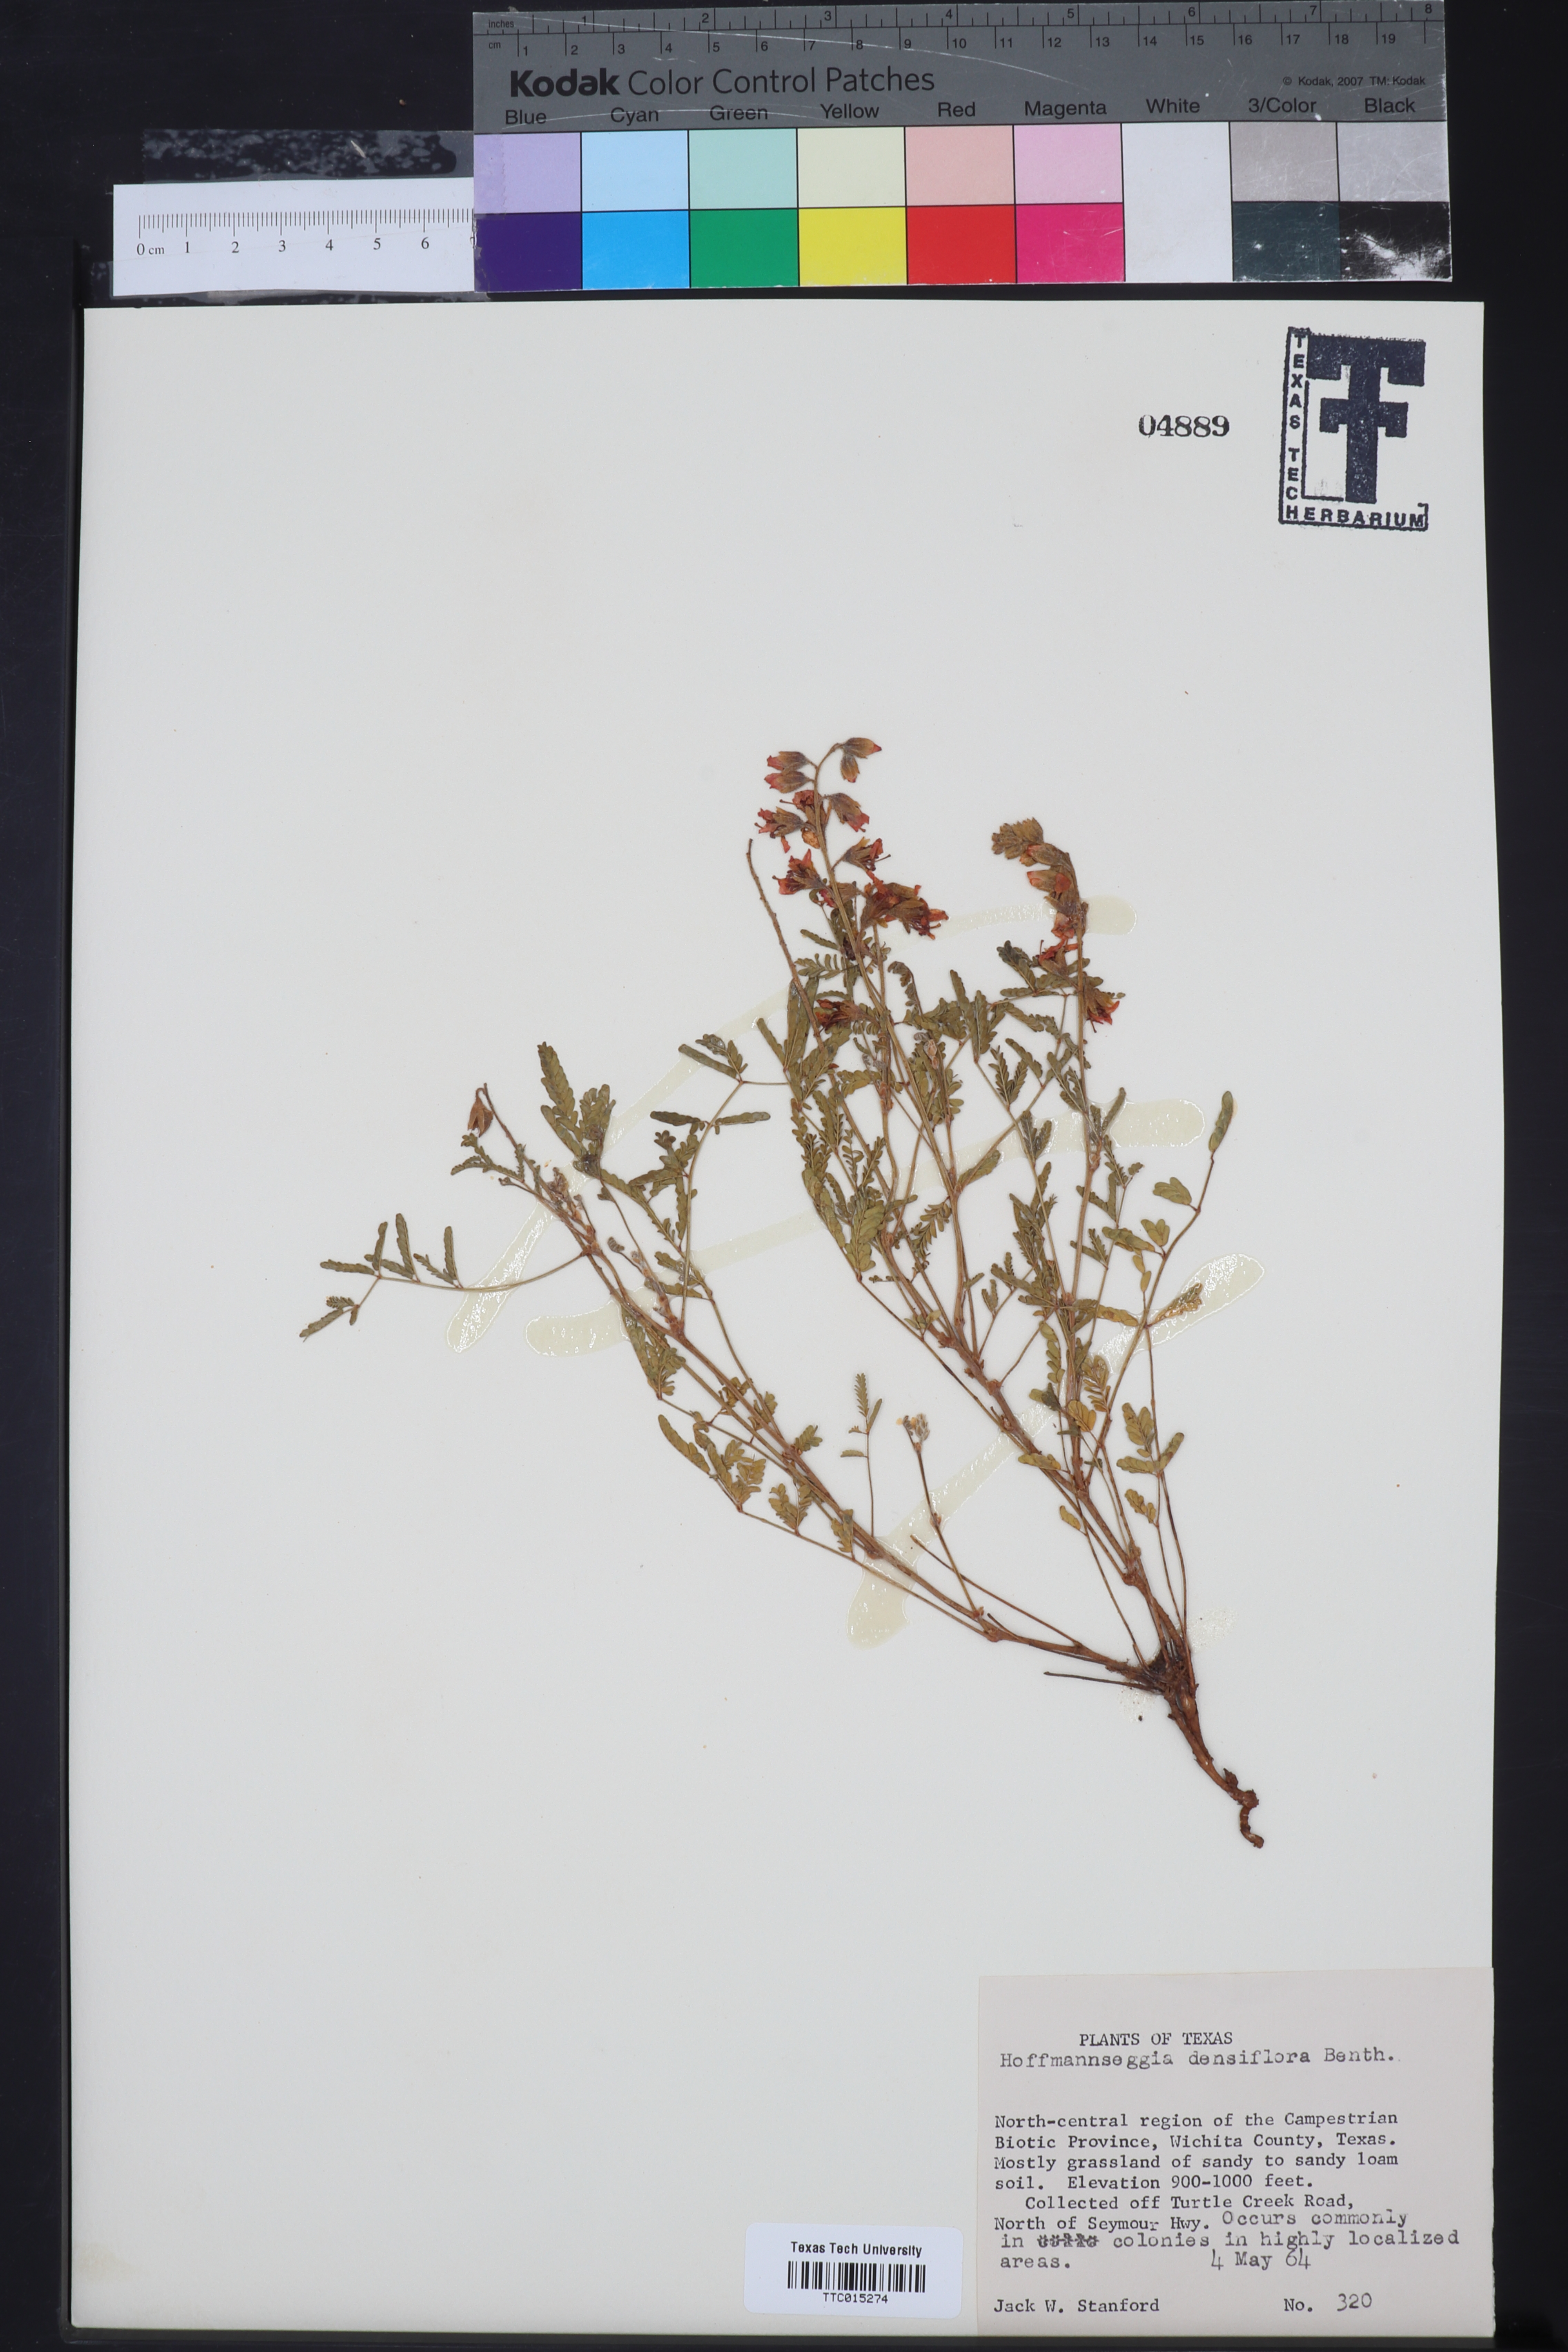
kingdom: Plantae
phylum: Tracheophyta
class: Magnoliopsida
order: Fabales
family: Fabaceae
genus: Hoffmannseggia
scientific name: Hoffmannseggia glauca
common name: Pignut
